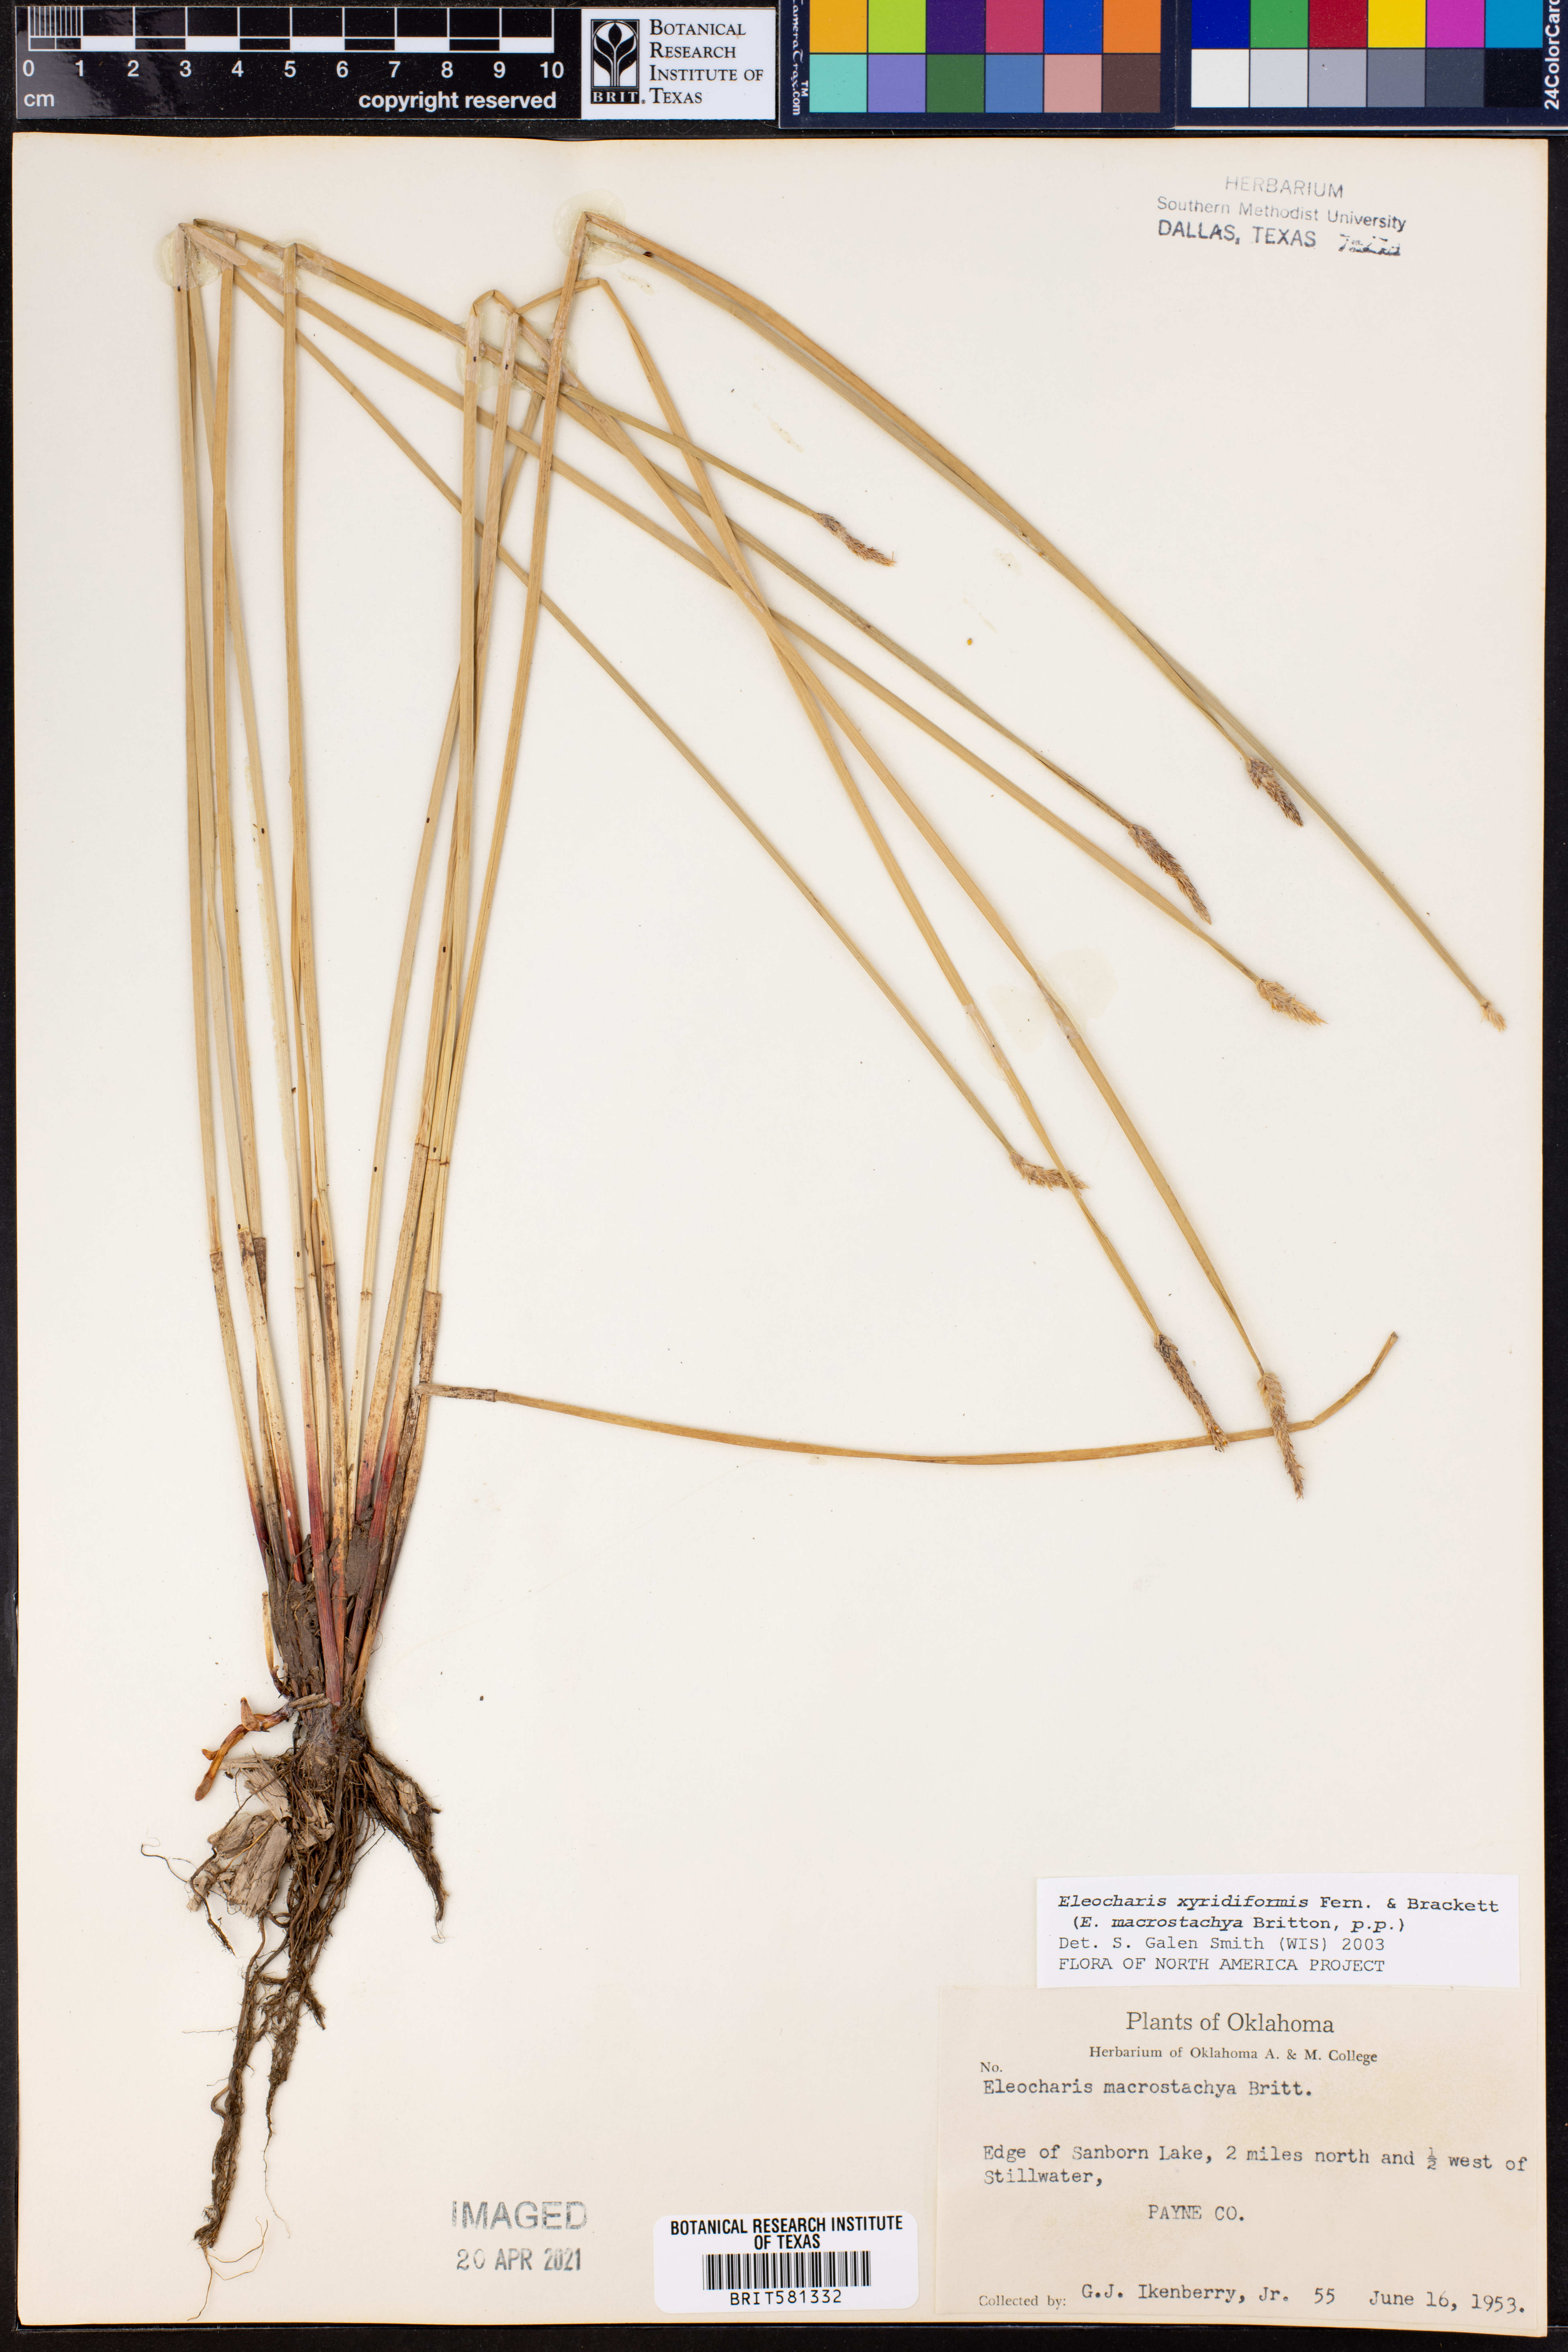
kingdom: Plantae
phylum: Tracheophyta
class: Liliopsida
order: Poales
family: Cyperaceae
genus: Eleocharis
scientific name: Eleocharis macrostachya
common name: Pale spikerush
